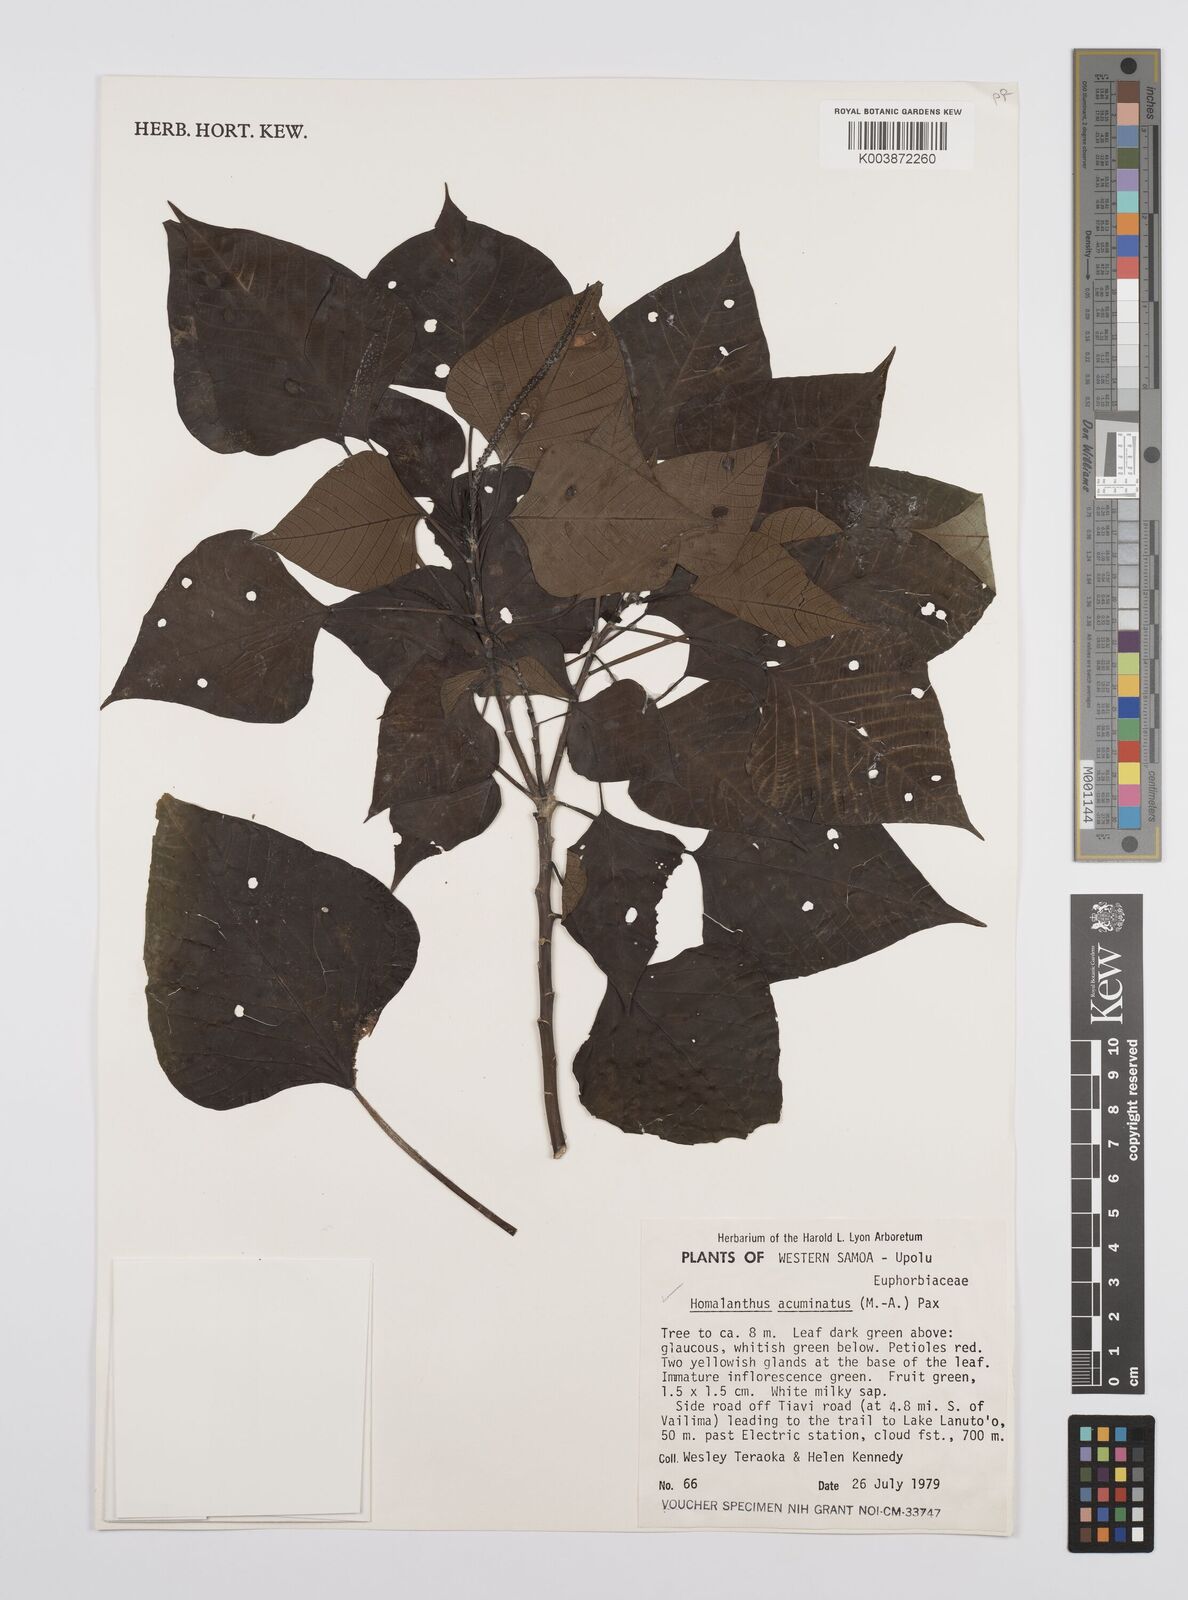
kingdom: Plantae
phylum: Tracheophyta
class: Magnoliopsida
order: Malpighiales
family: Euphorbiaceae
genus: Homalanthus
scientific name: Homalanthus nutans
